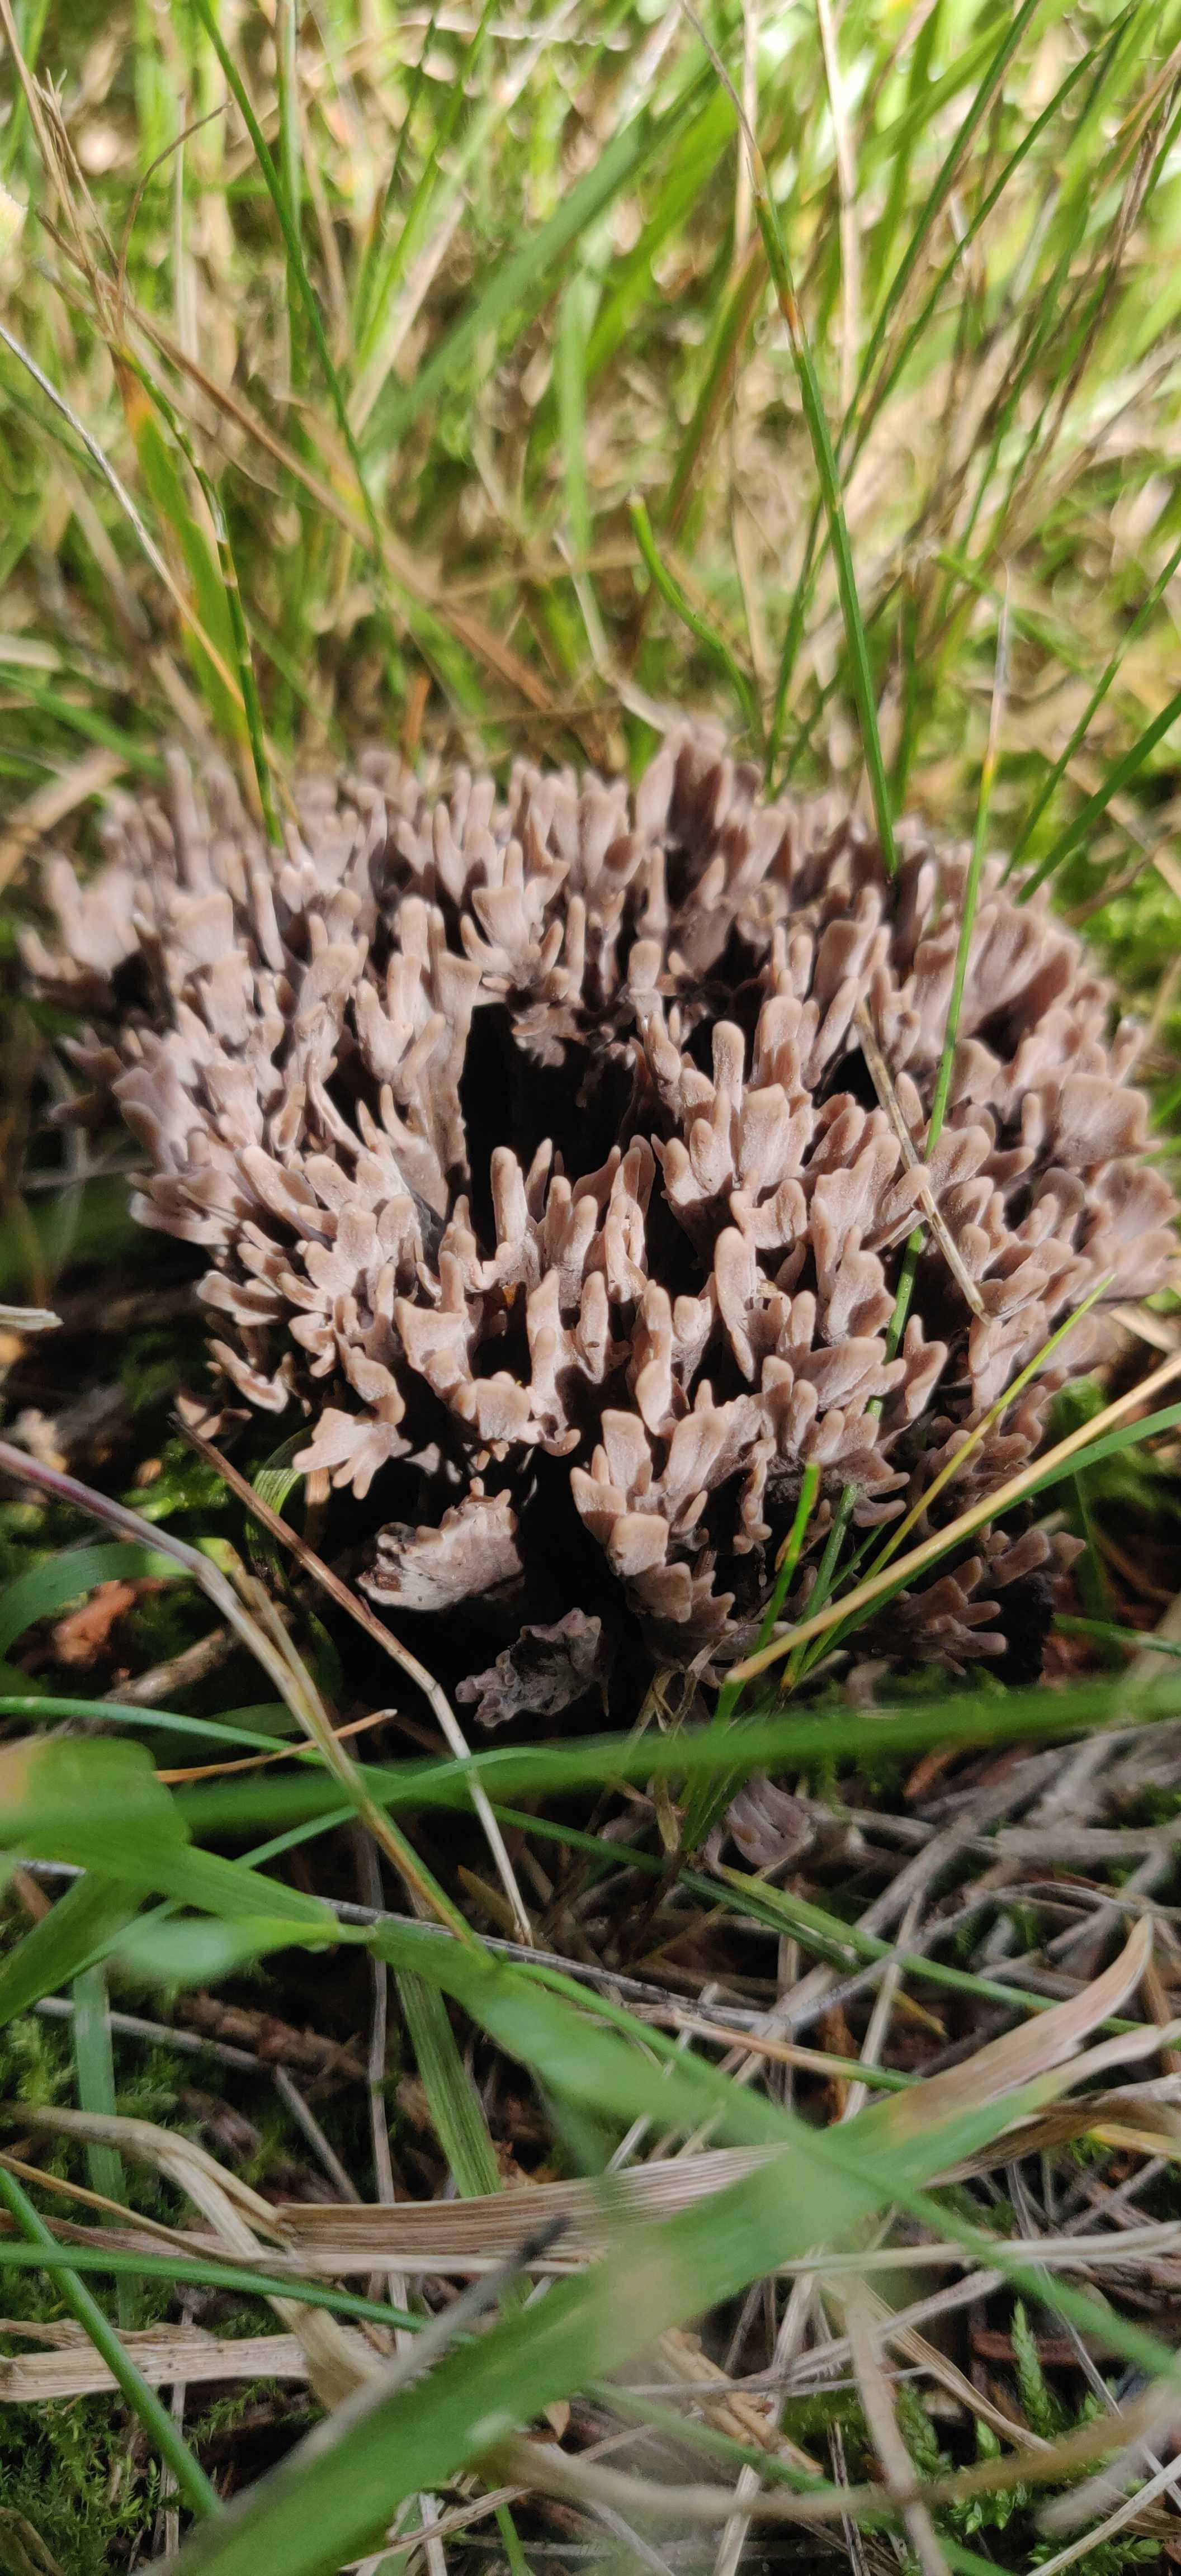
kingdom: Fungi
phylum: Basidiomycota
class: Agaricomycetes
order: Thelephorales
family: Thelephoraceae
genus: Thelephora
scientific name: Thelephora palmata
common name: grenet frynsesvamp
